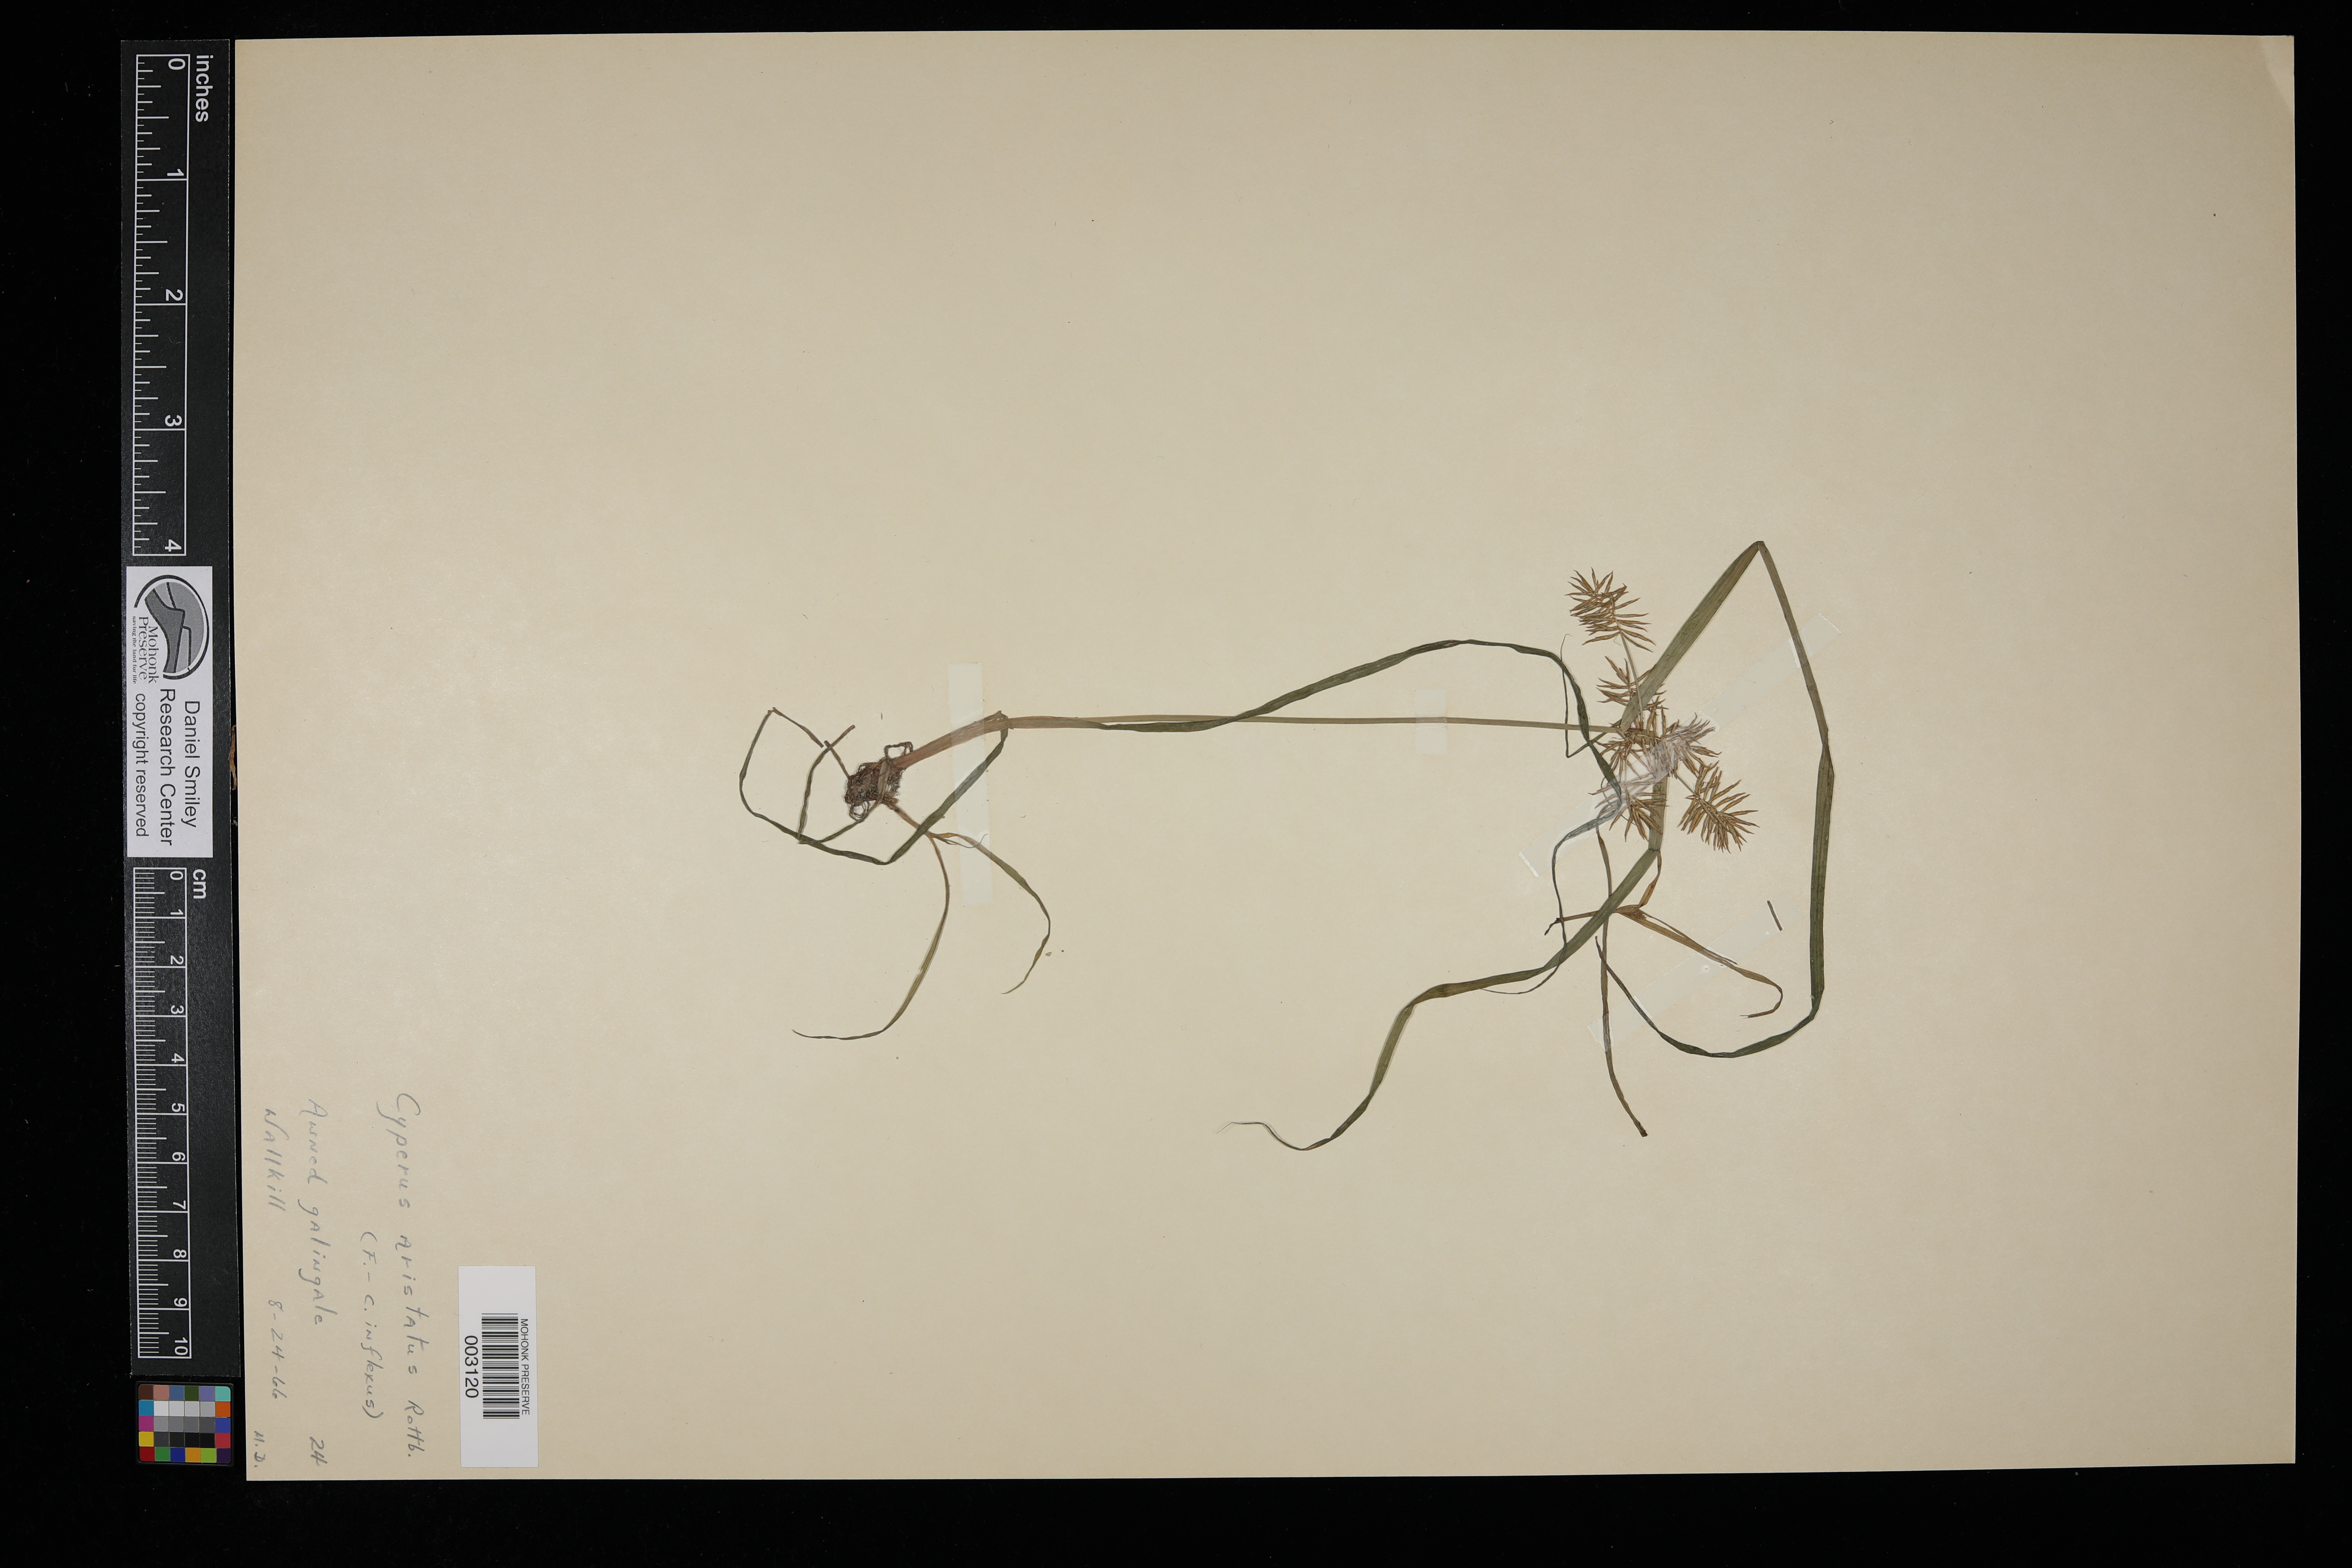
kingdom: Plantae
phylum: Tracheophyta
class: Liliopsida
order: Poales
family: Cyperaceae
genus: Cyperus
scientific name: Cyperus squarrosus
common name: Awned cyperus
